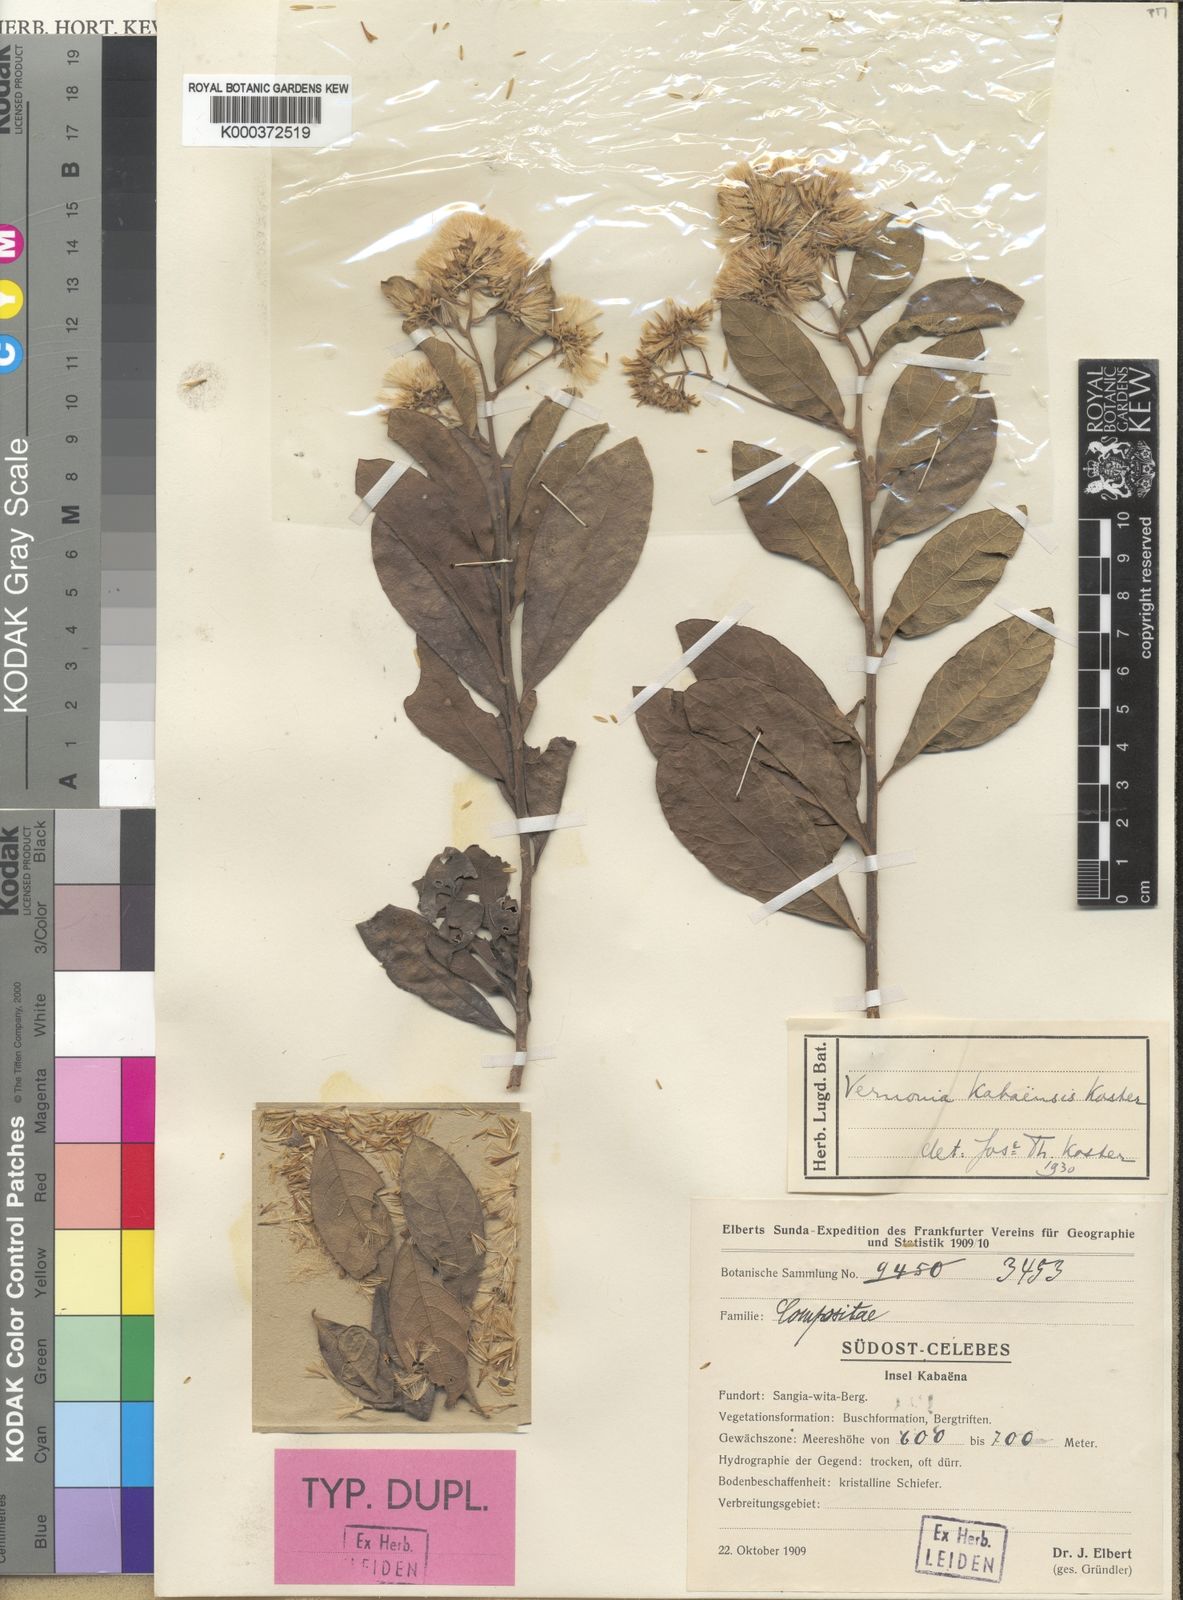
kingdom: Plantae
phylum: Tracheophyta
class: Magnoliopsida
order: Asterales
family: Asteraceae
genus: Vernonia
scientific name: Vernonia kabaensis
